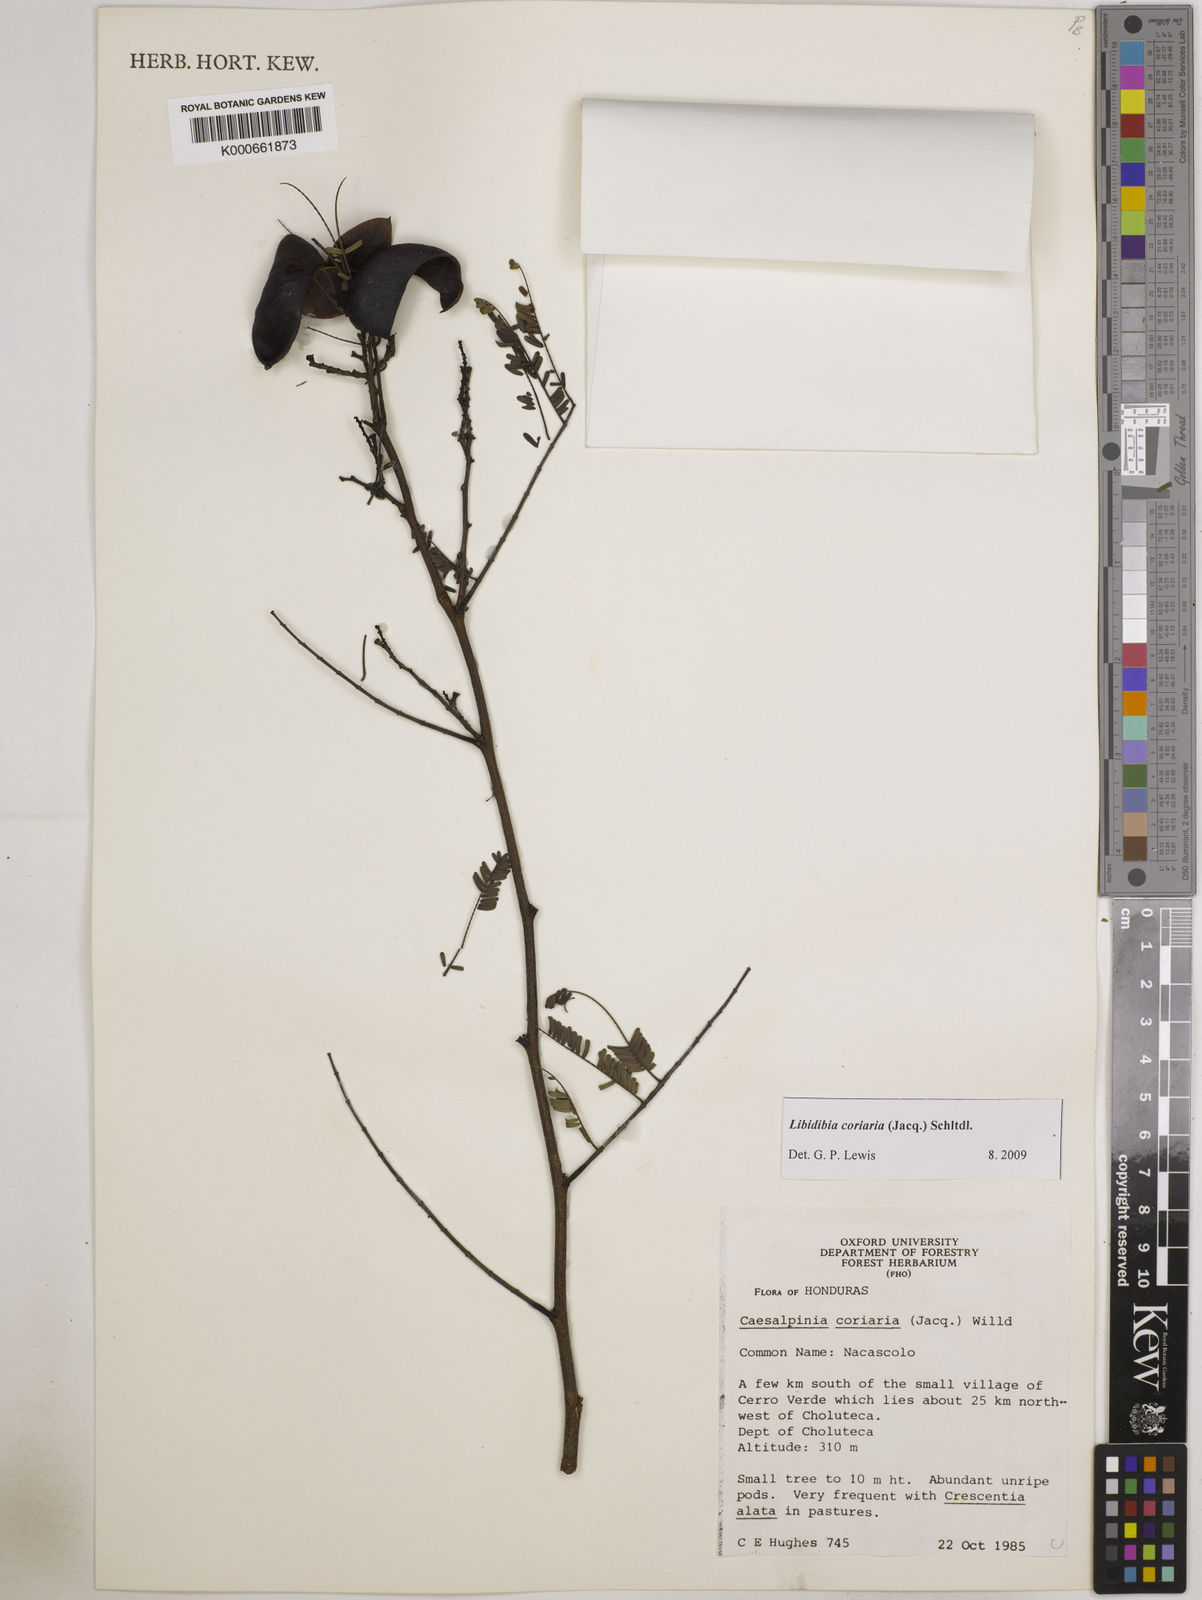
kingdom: Plantae
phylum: Tracheophyta
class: Magnoliopsida
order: Fabales
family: Fabaceae
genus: Libidibia
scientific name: Libidibia coriaria
